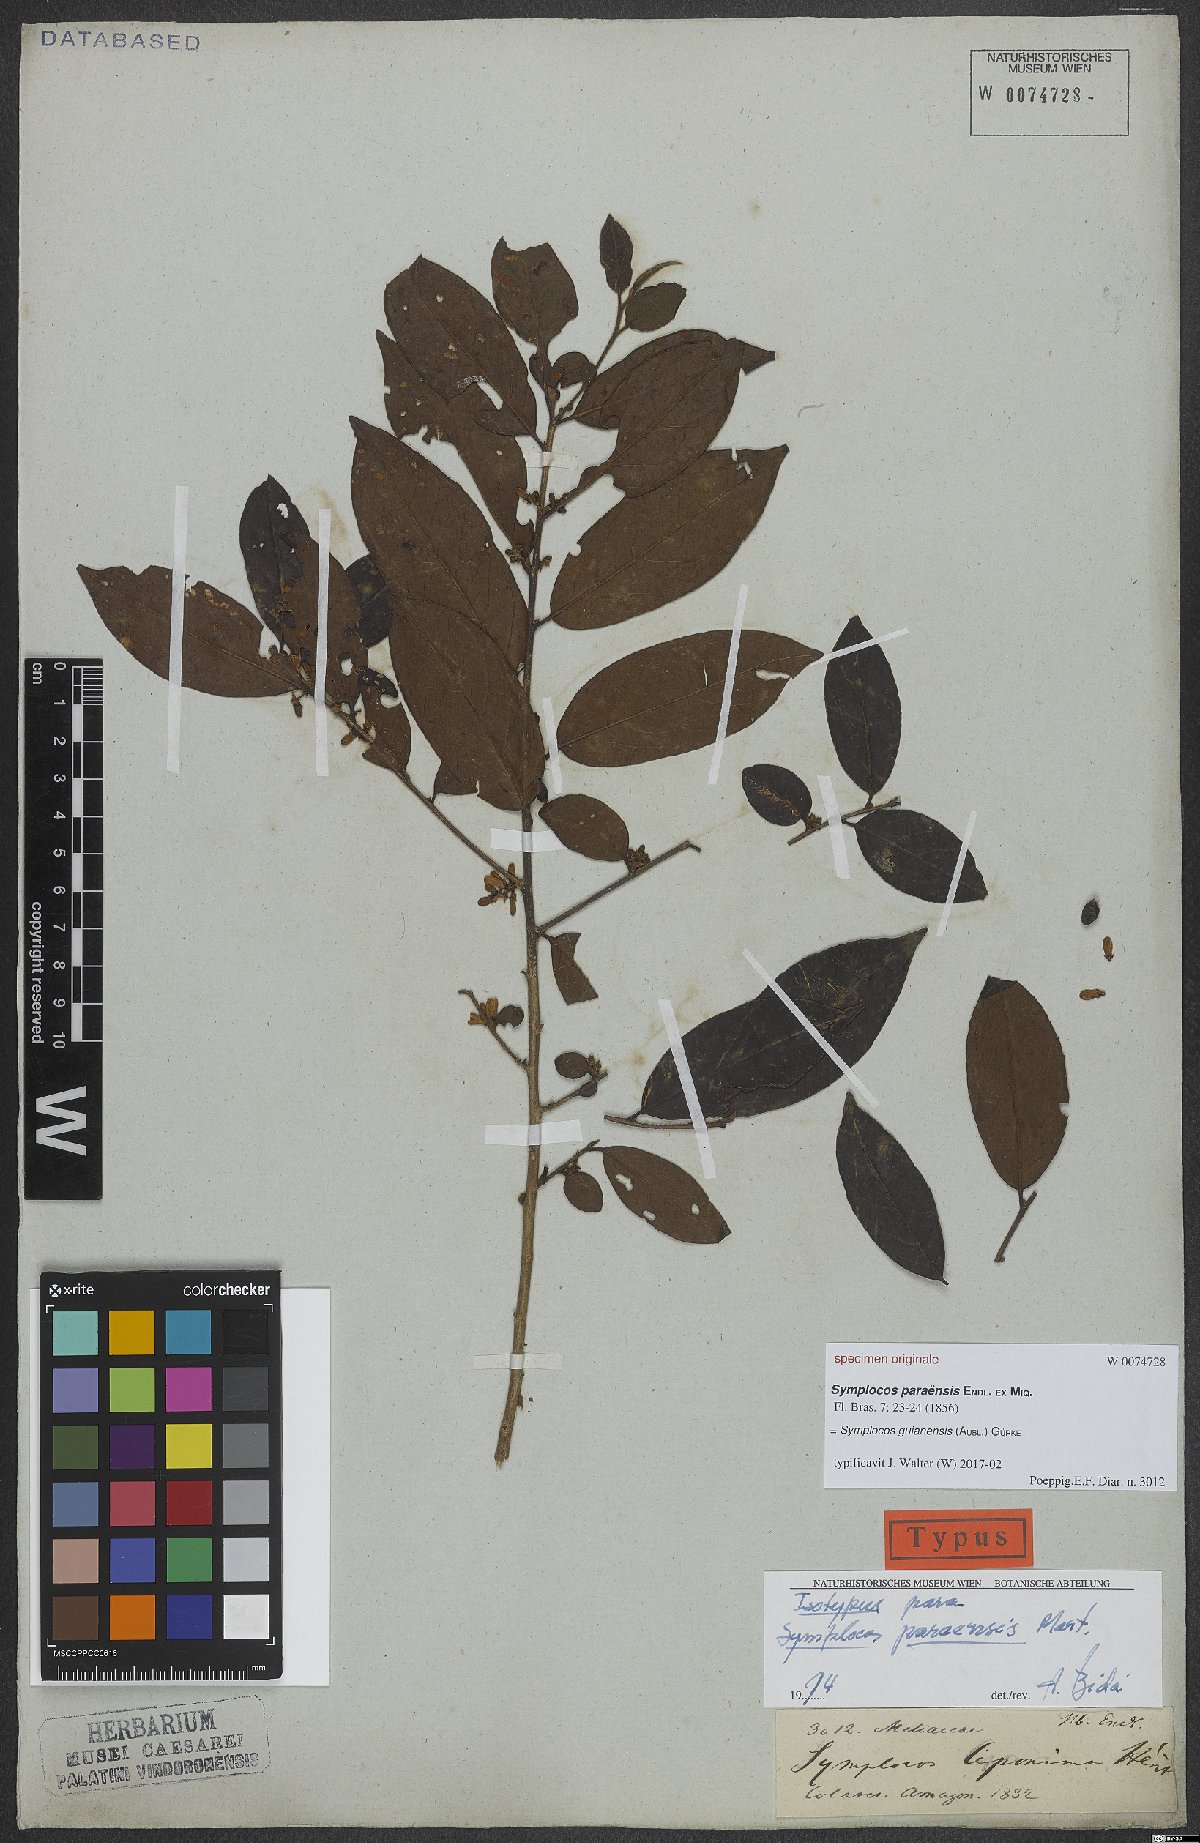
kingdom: Plantae
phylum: Tracheophyta
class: Magnoliopsida
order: Ericales
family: Symplocaceae
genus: Symplocos
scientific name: Symplocos guianensis
